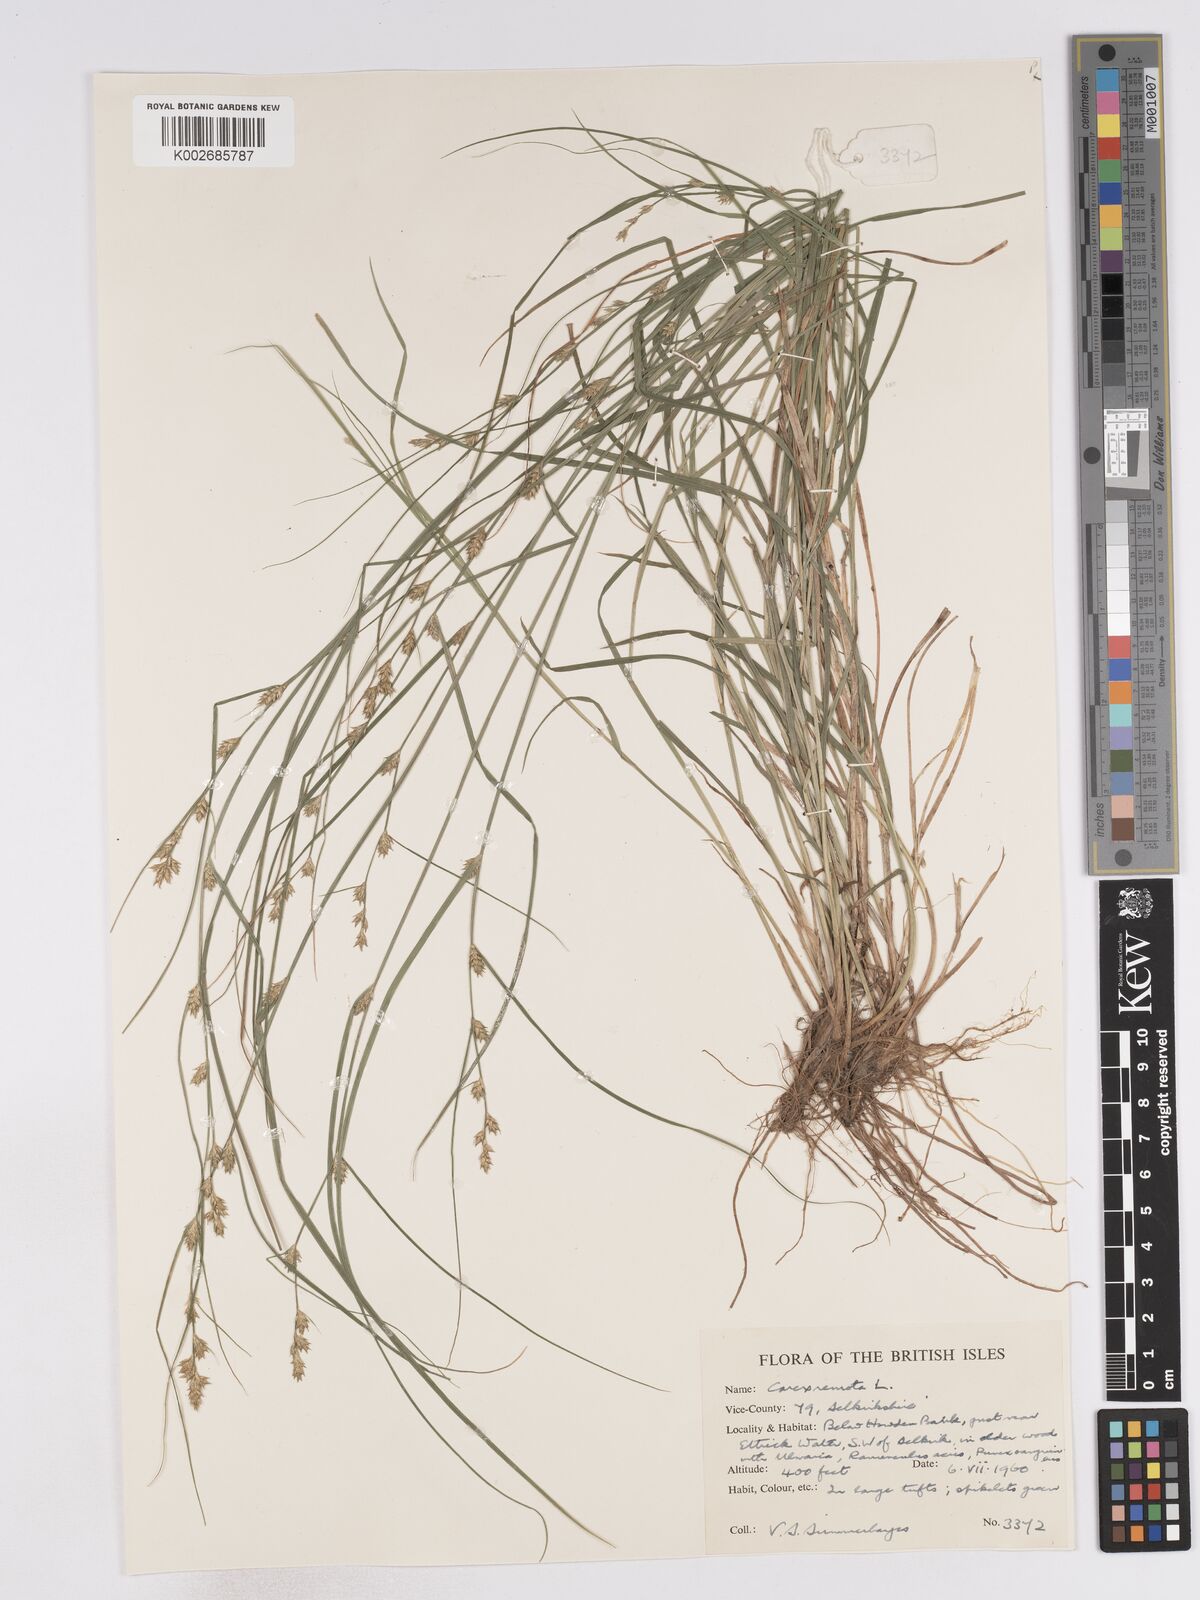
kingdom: Plantae
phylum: Tracheophyta
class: Liliopsida
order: Poales
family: Cyperaceae
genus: Carex
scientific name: Carex remota
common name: Remote sedge
